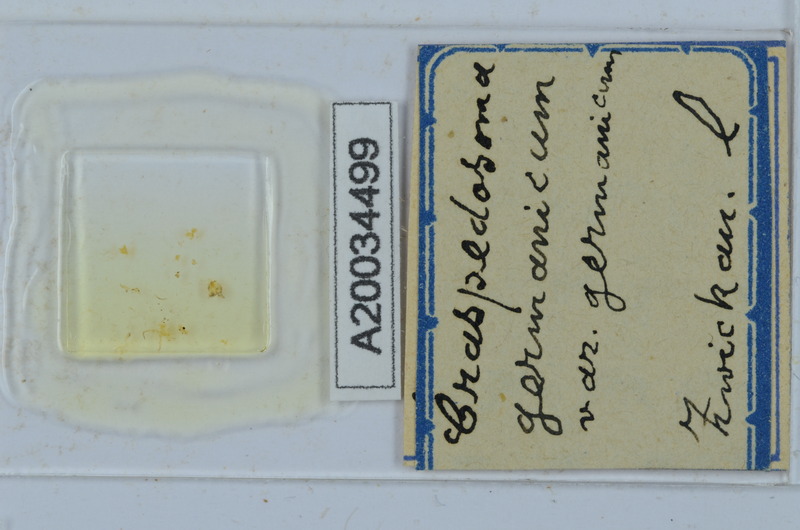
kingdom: Animalia
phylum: Arthropoda
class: Diplopoda
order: Chordeumatida
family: Craspedosomatidae
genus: Craspedosoma
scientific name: Craspedosoma rawlinsii
